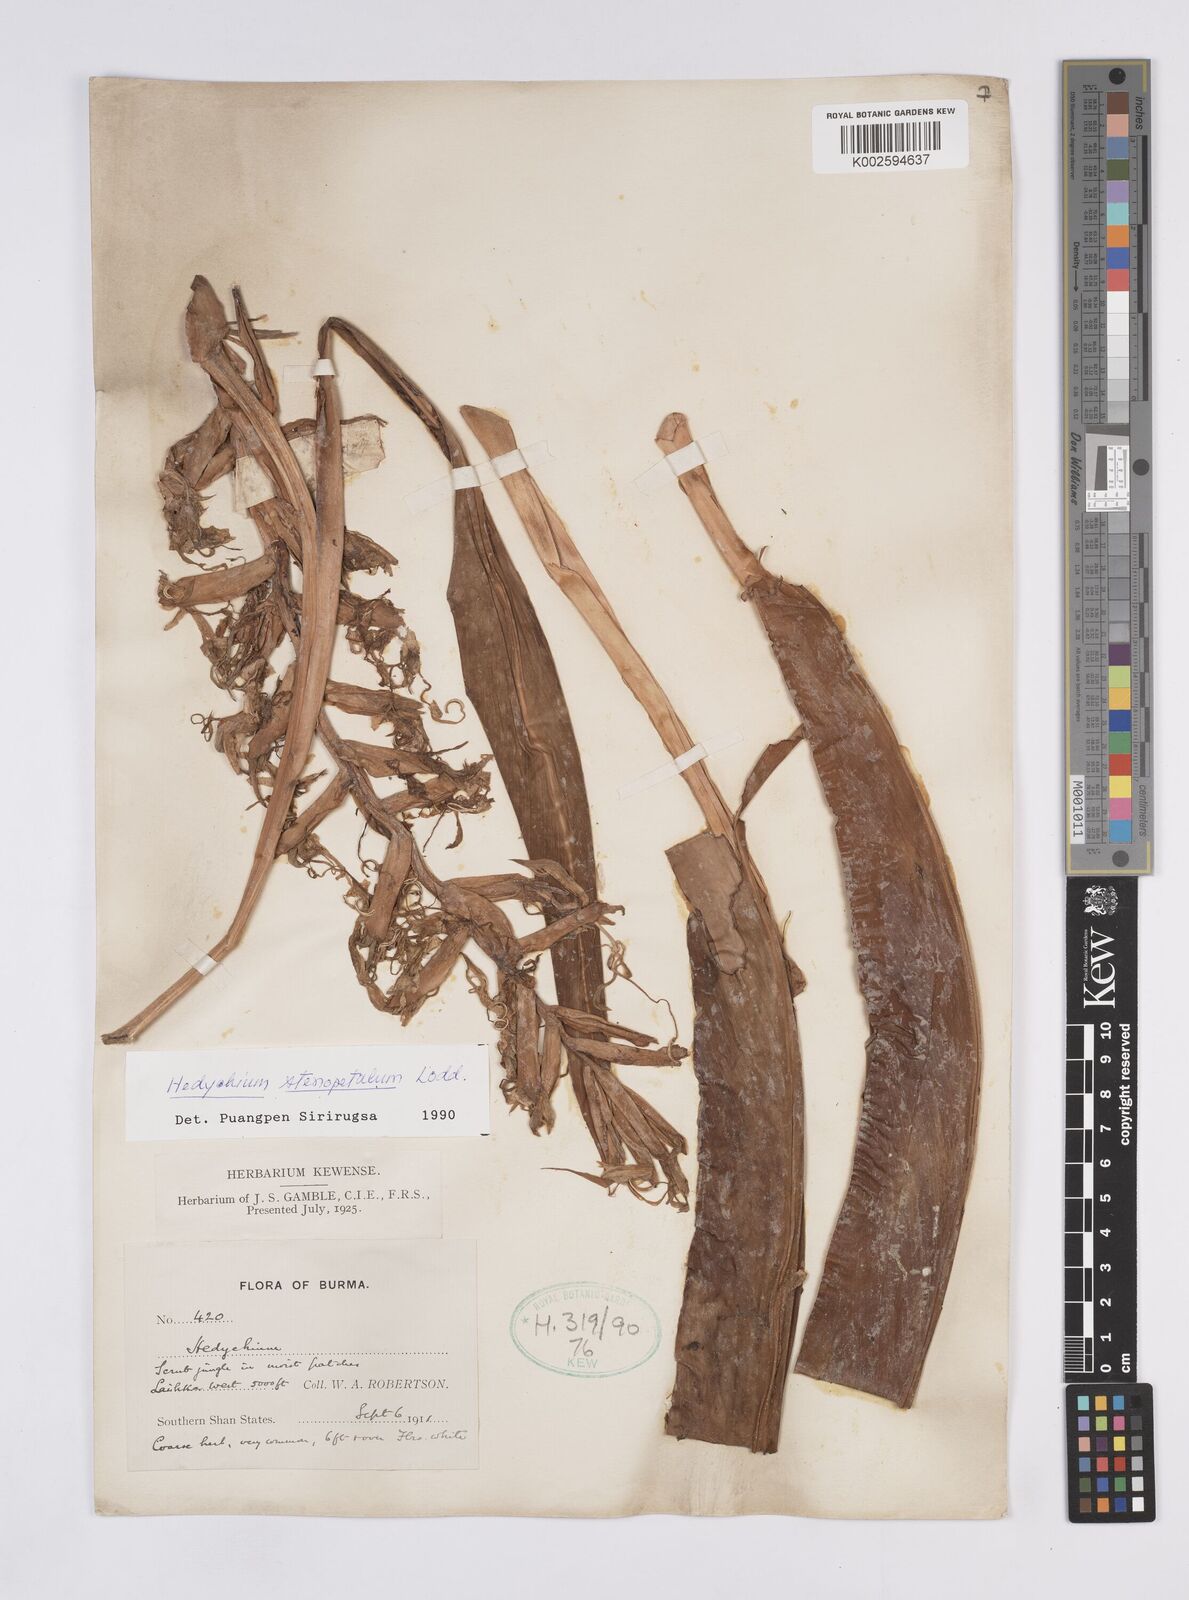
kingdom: Plantae
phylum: Tracheophyta
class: Liliopsida
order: Zingiberales
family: Zingiberaceae
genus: Hedychium
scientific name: Hedychium stenopetalum
